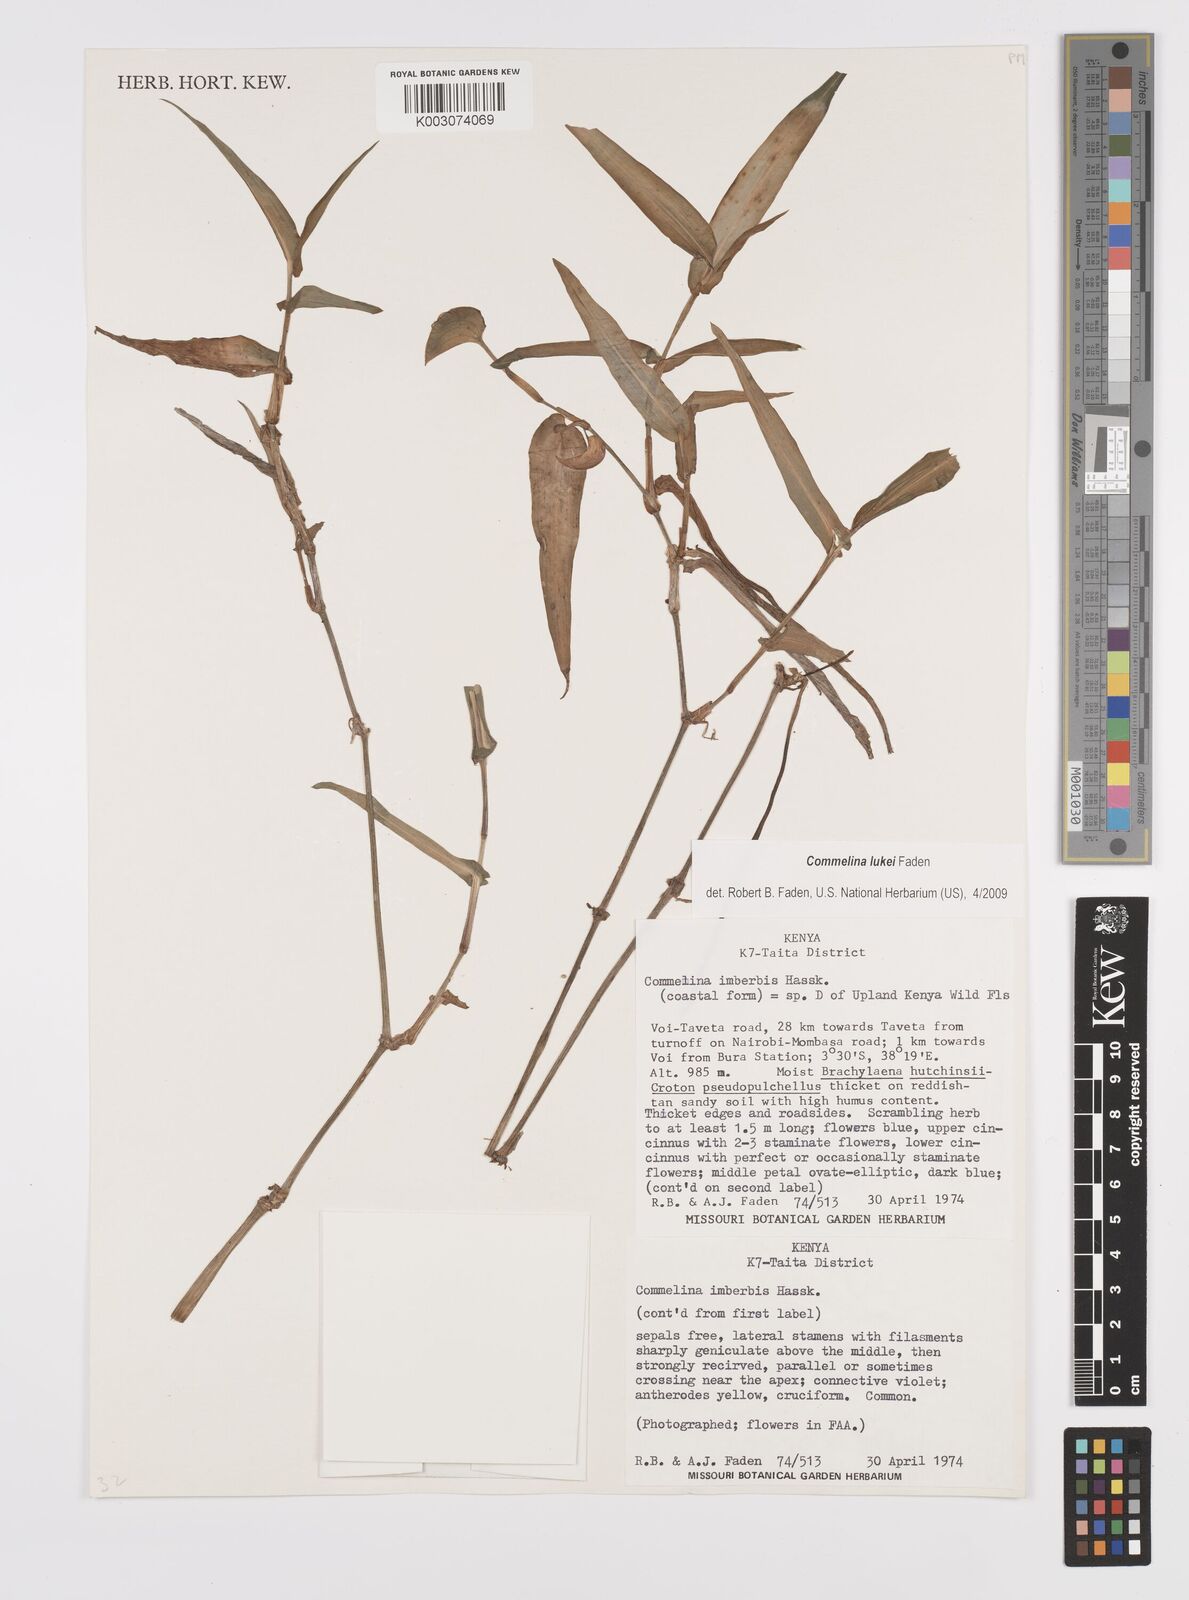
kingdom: Plantae
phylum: Tracheophyta
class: Liliopsida
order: Commelinales
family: Commelinaceae
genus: Commelina
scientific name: Commelina lukei
